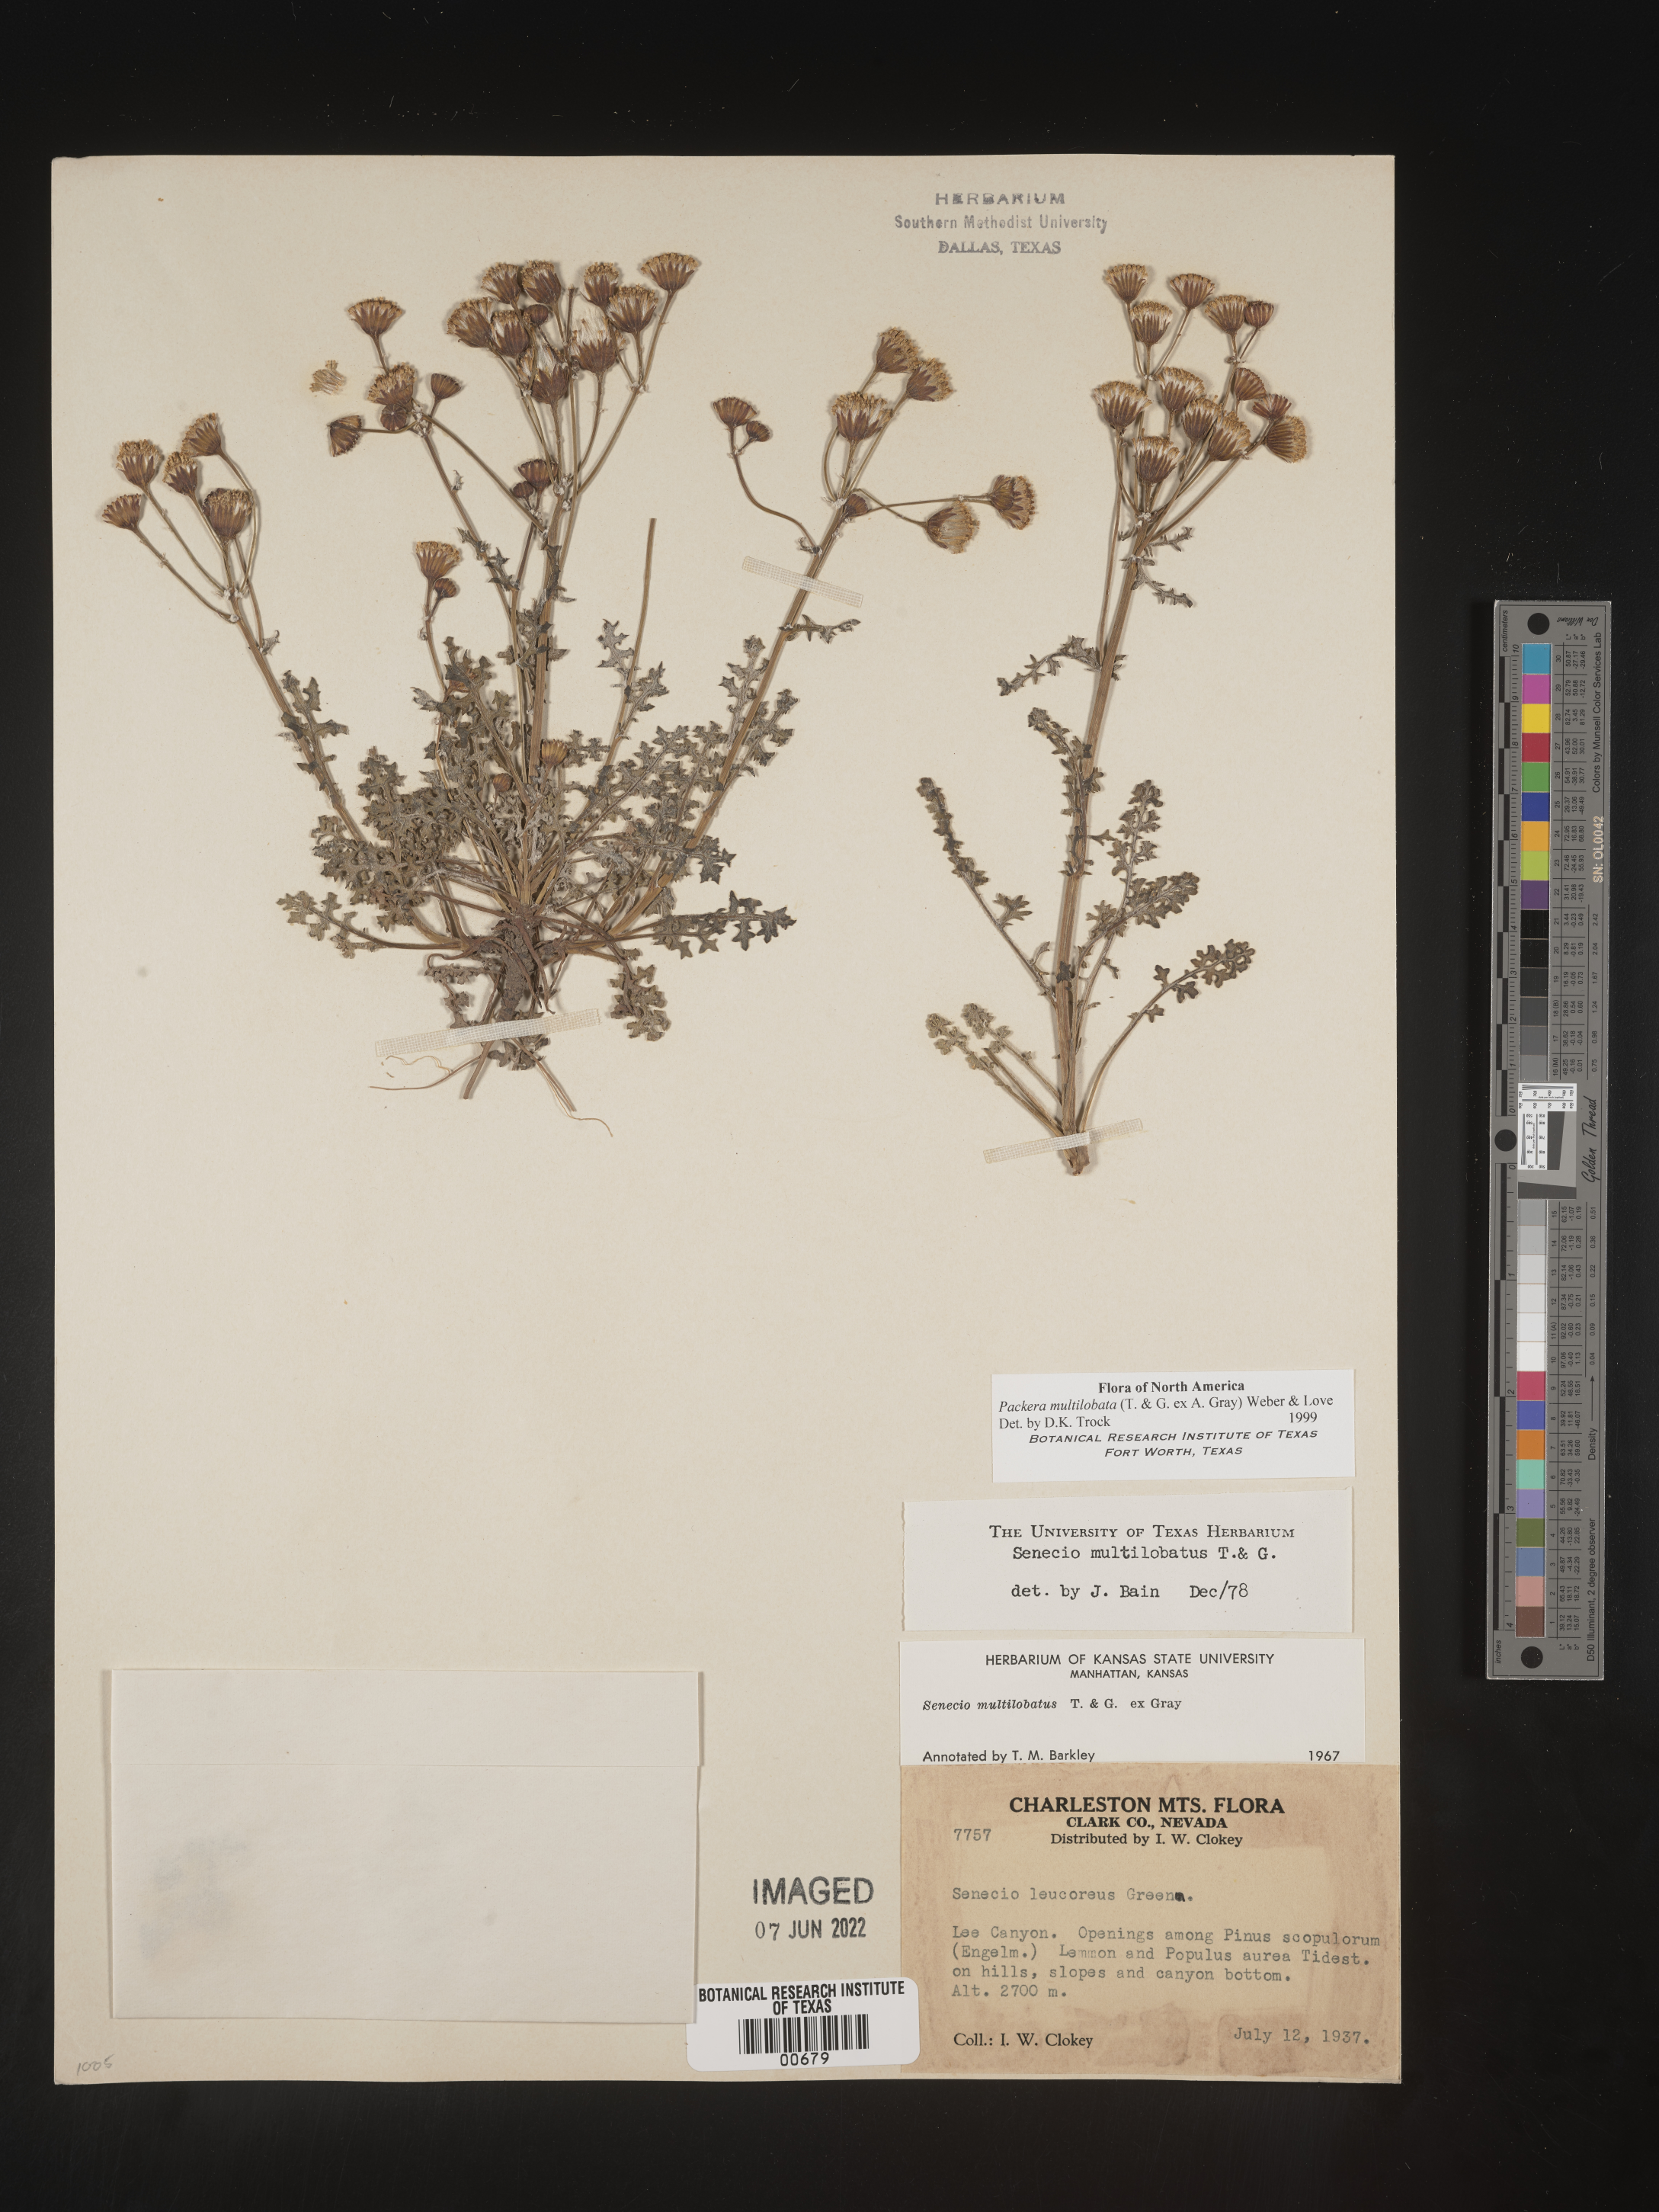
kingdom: Plantae
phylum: Tracheophyta
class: Magnoliopsida
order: Asterales
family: Asteraceae
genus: Packera
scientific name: Packera multilobata
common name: Lobe-leaf groundsel
